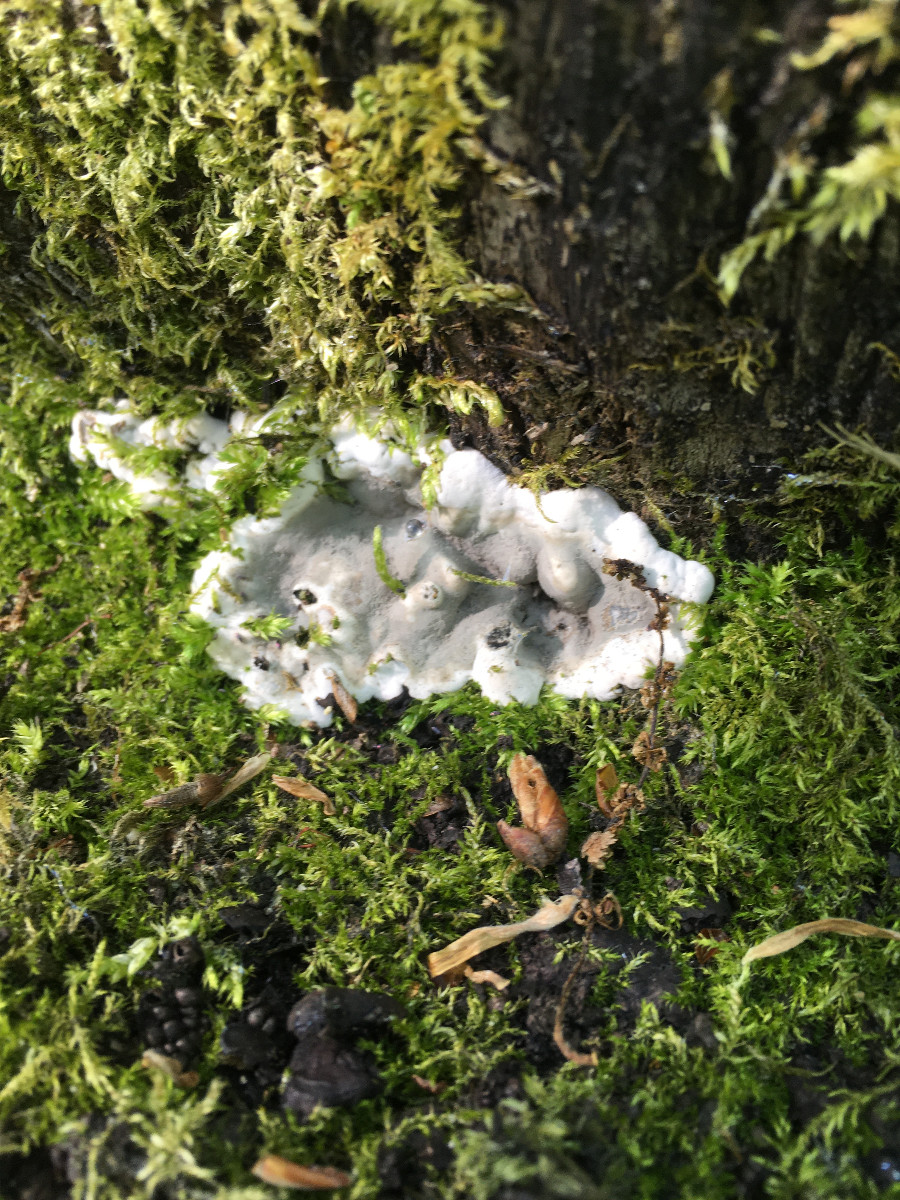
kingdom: Fungi
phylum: Ascomycota
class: Sordariomycetes
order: Xylariales
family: Xylariaceae
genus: Kretzschmaria
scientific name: Kretzschmaria deusta
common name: stor kulsvamp
